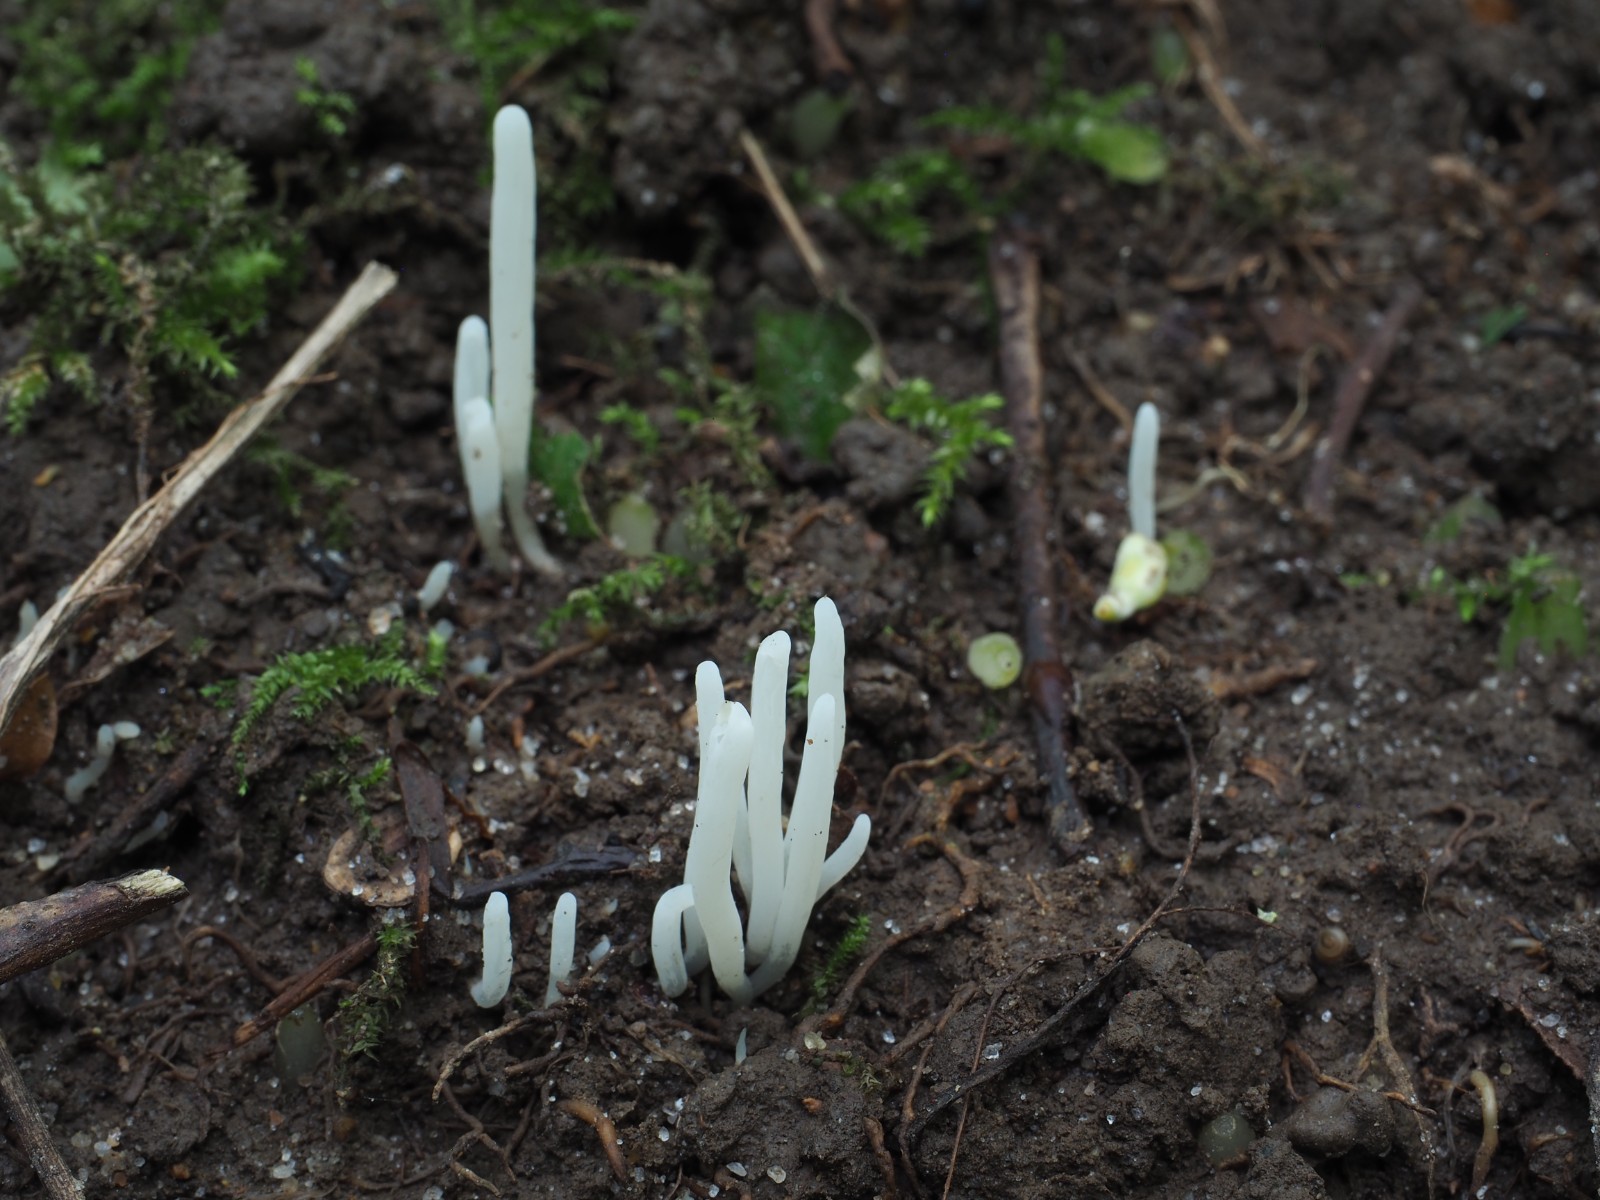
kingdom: Fungi
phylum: Basidiomycota
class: Agaricomycetes
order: Agaricales
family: Clavariaceae
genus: Clavaria
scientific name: Clavaria
